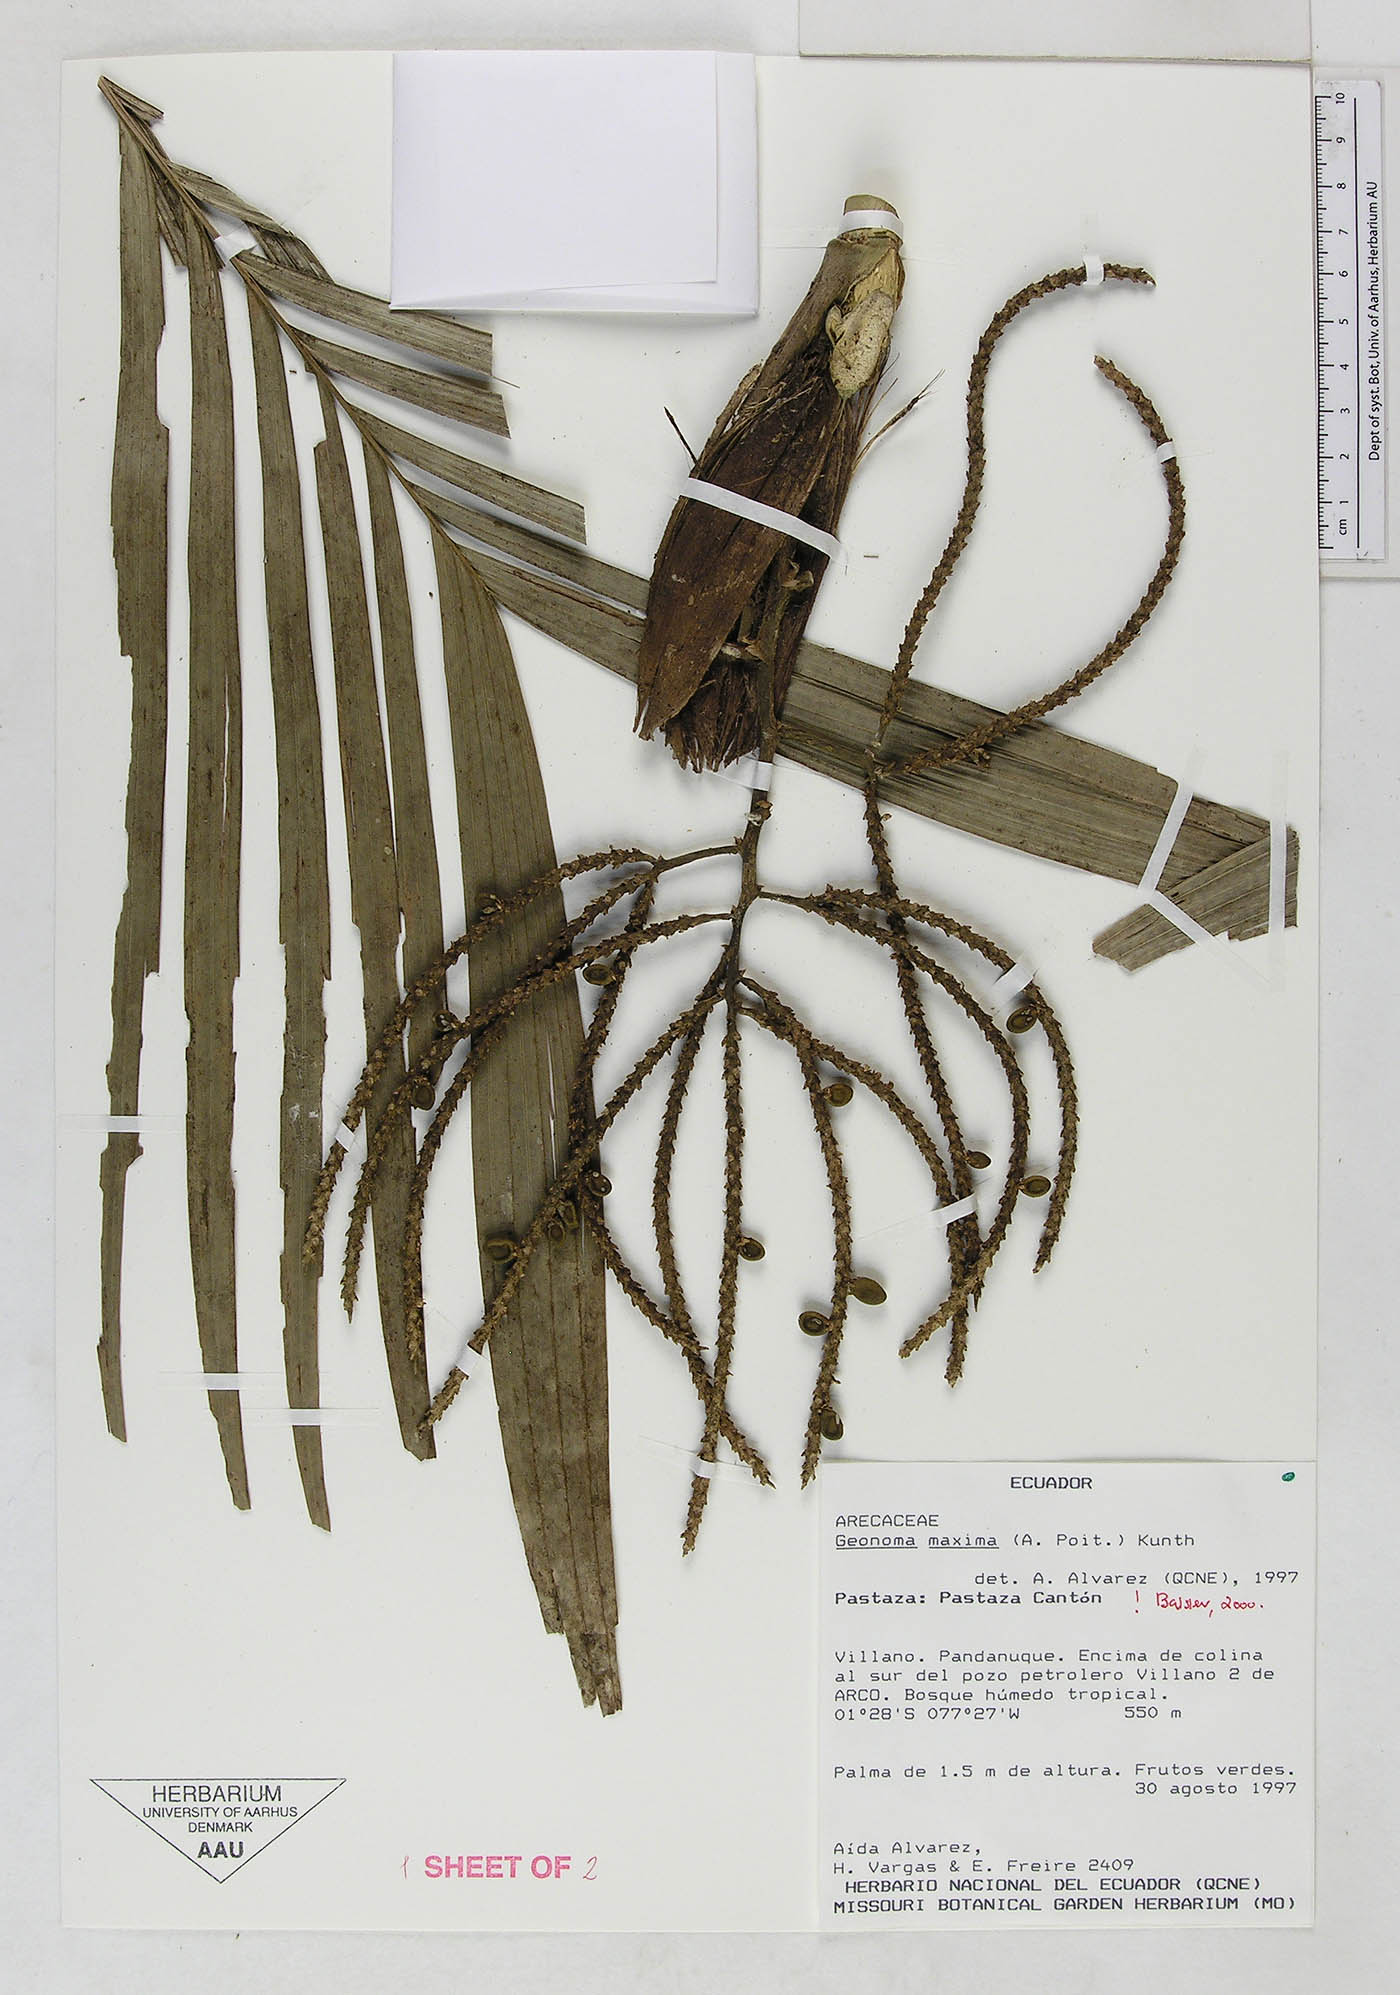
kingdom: Plantae
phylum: Tracheophyta
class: Liliopsida
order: Arecales
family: Arecaceae
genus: Geonoma
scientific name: Geonoma maxima
